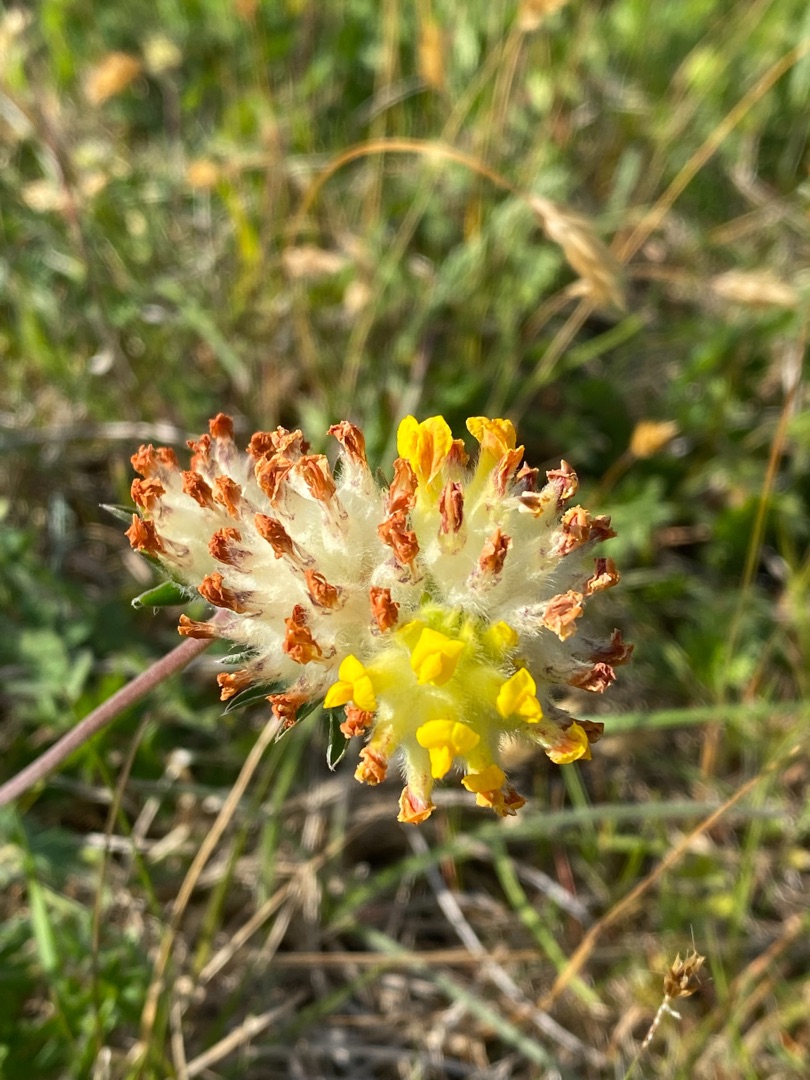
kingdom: Plantae
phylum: Tracheophyta
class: Magnoliopsida
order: Fabales
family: Fabaceae
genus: Anthyllis
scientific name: Anthyllis vulneraria
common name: Rundbælg
